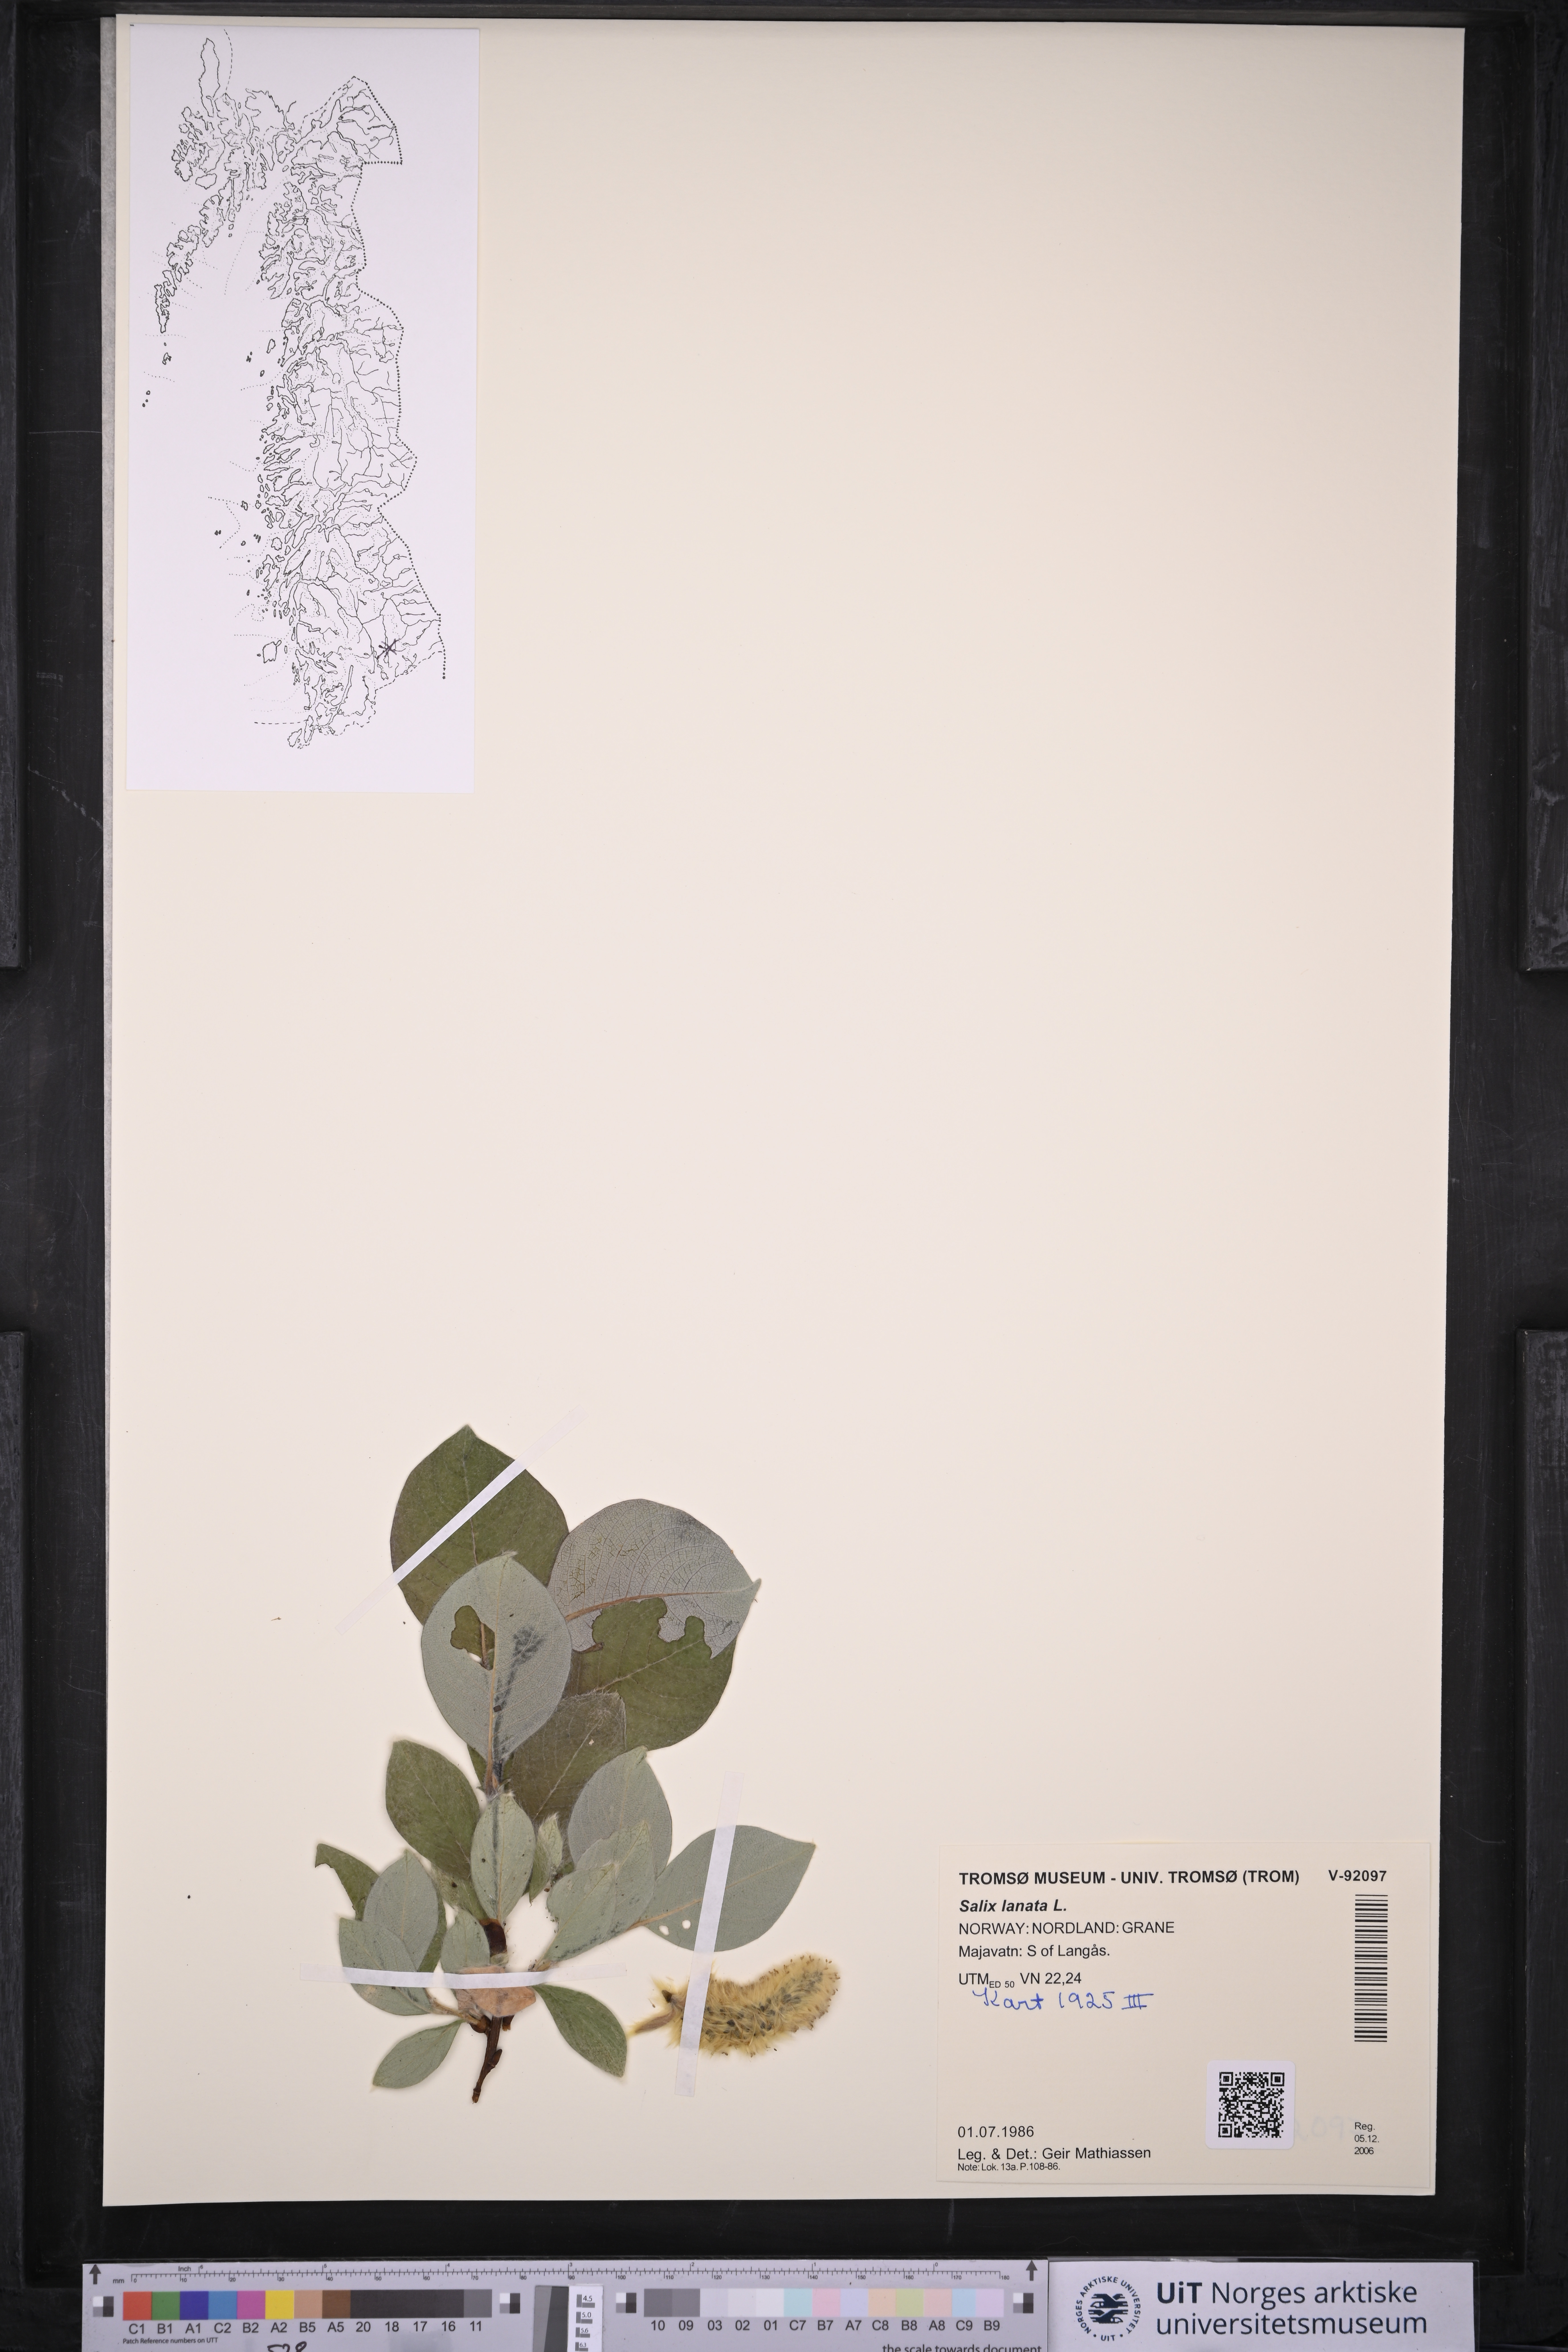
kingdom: Plantae
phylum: Tracheophyta
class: Magnoliopsida
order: Malpighiales
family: Salicaceae
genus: Salix
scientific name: Salix lanata
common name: Woolly willow
